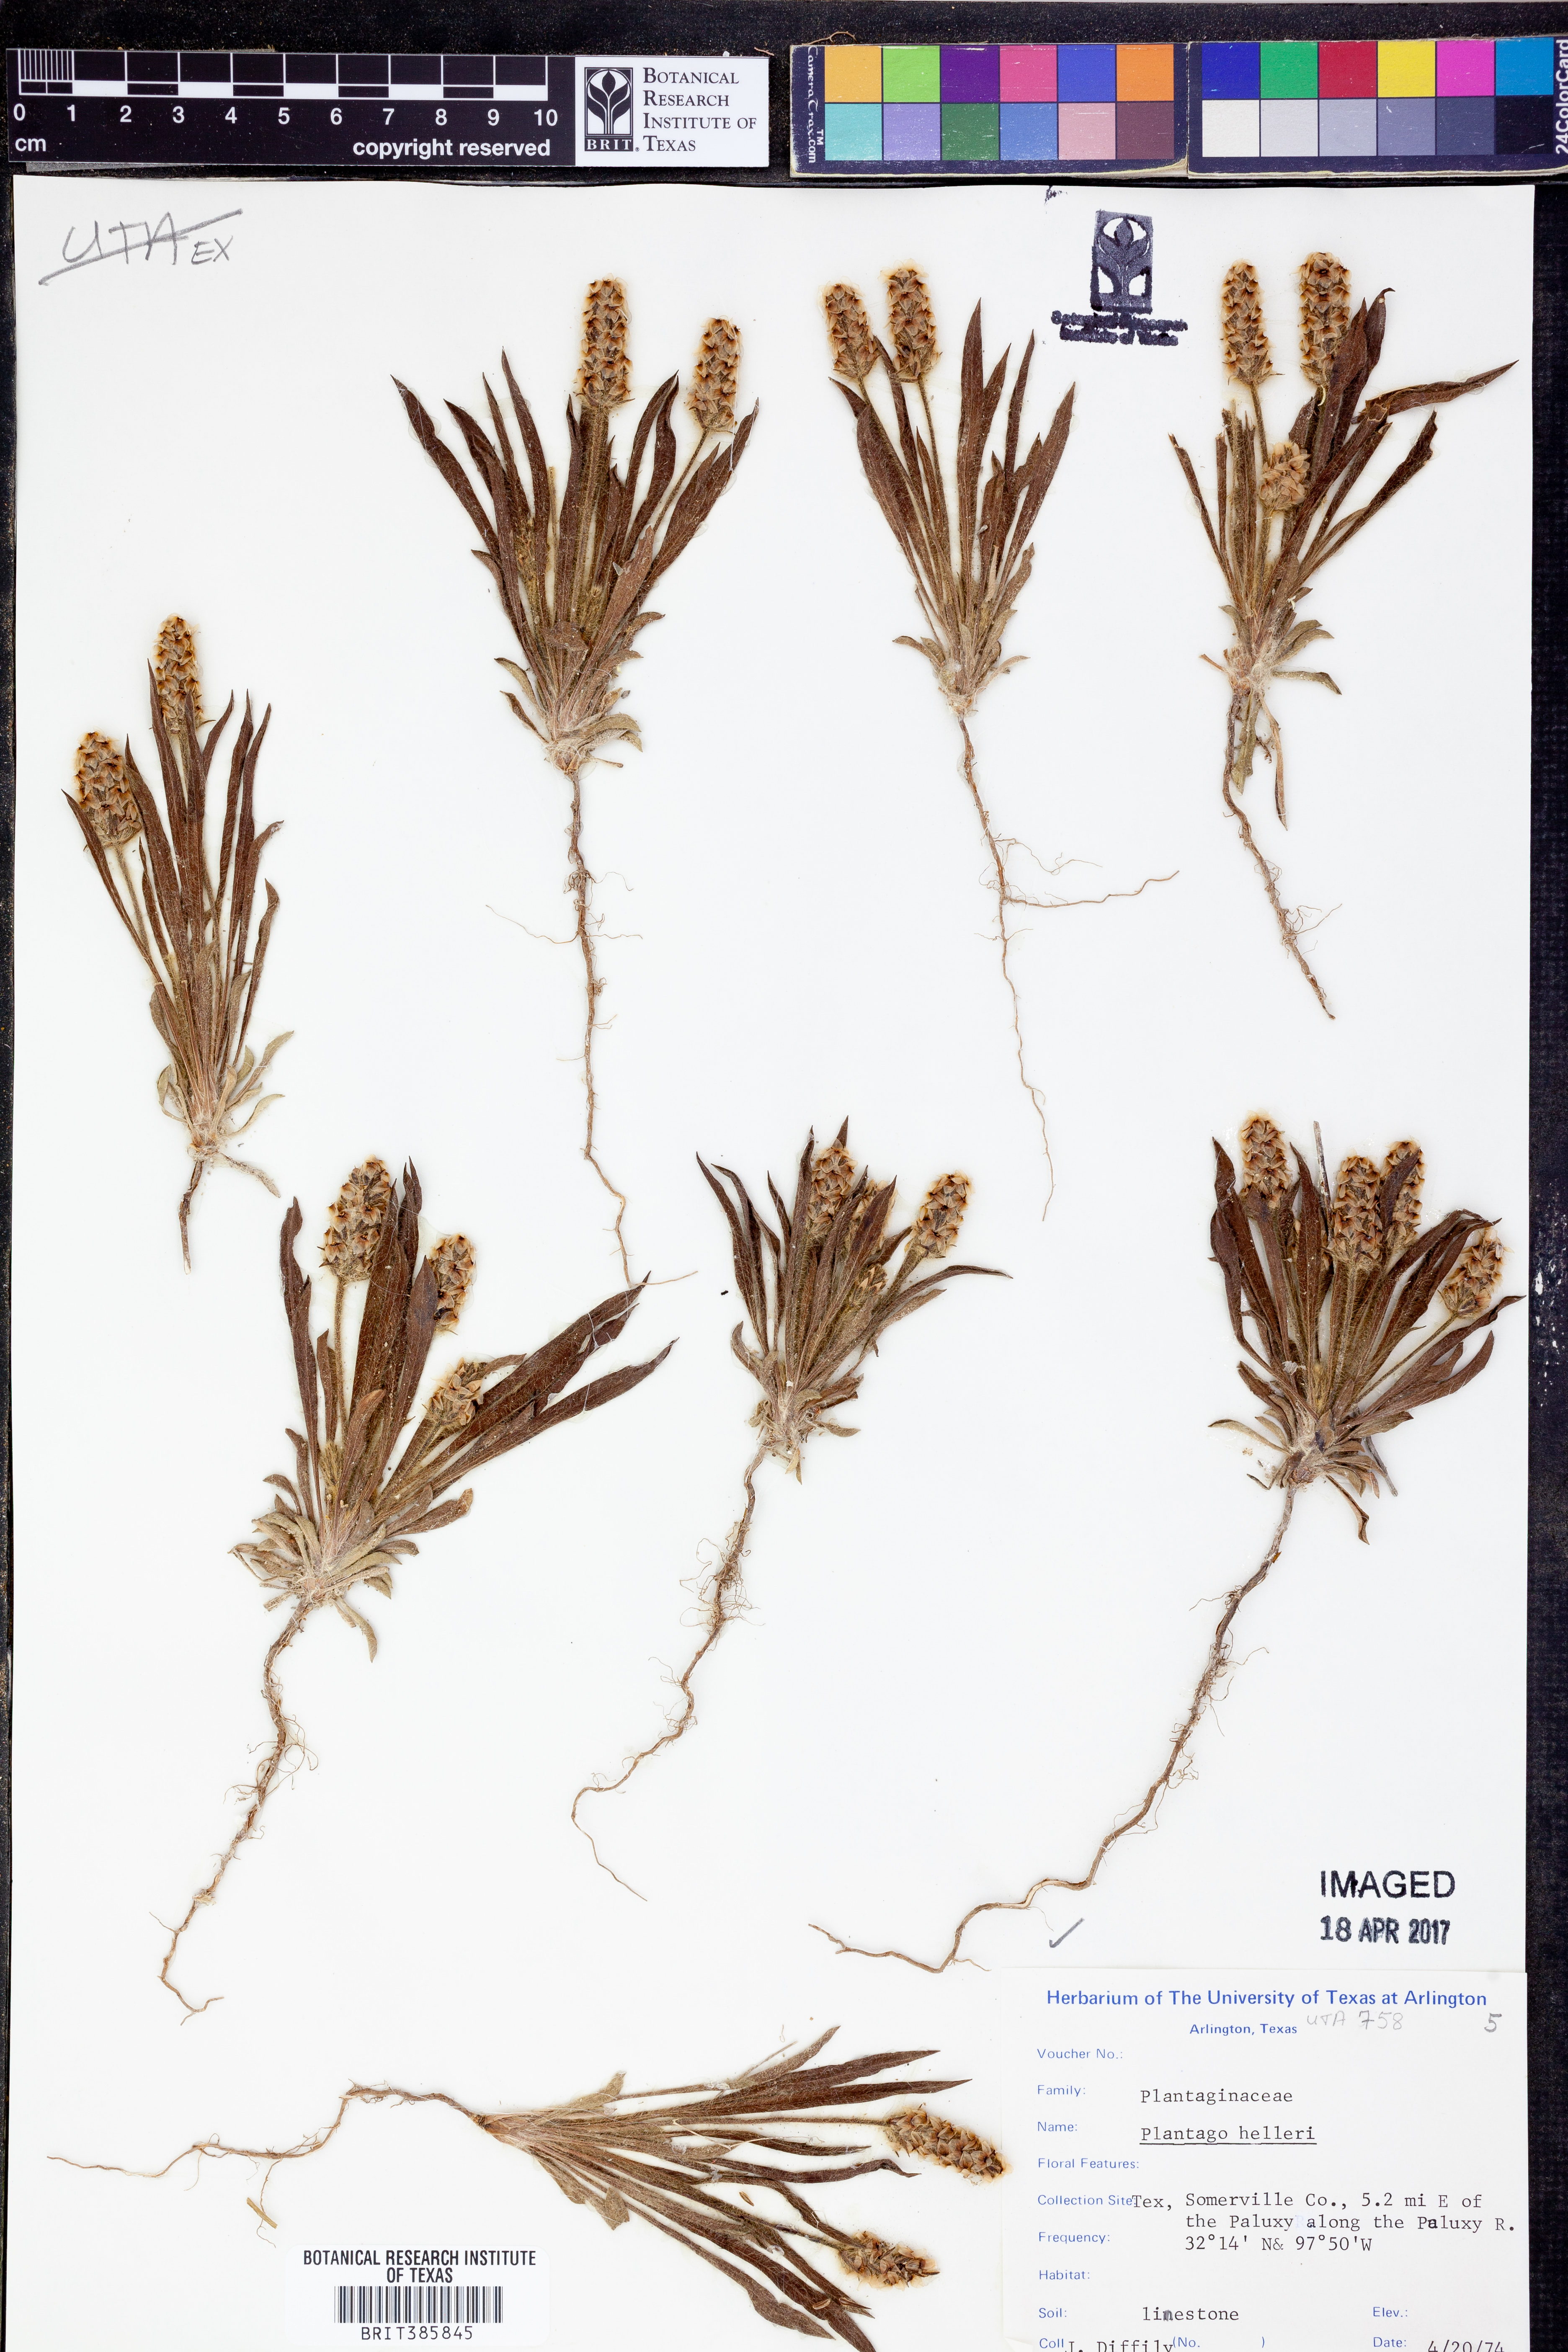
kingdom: Plantae
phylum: Tracheophyta
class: Magnoliopsida
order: Lamiales
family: Plantaginaceae
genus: Plantago
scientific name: Plantago helleri
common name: Heller's plantain
